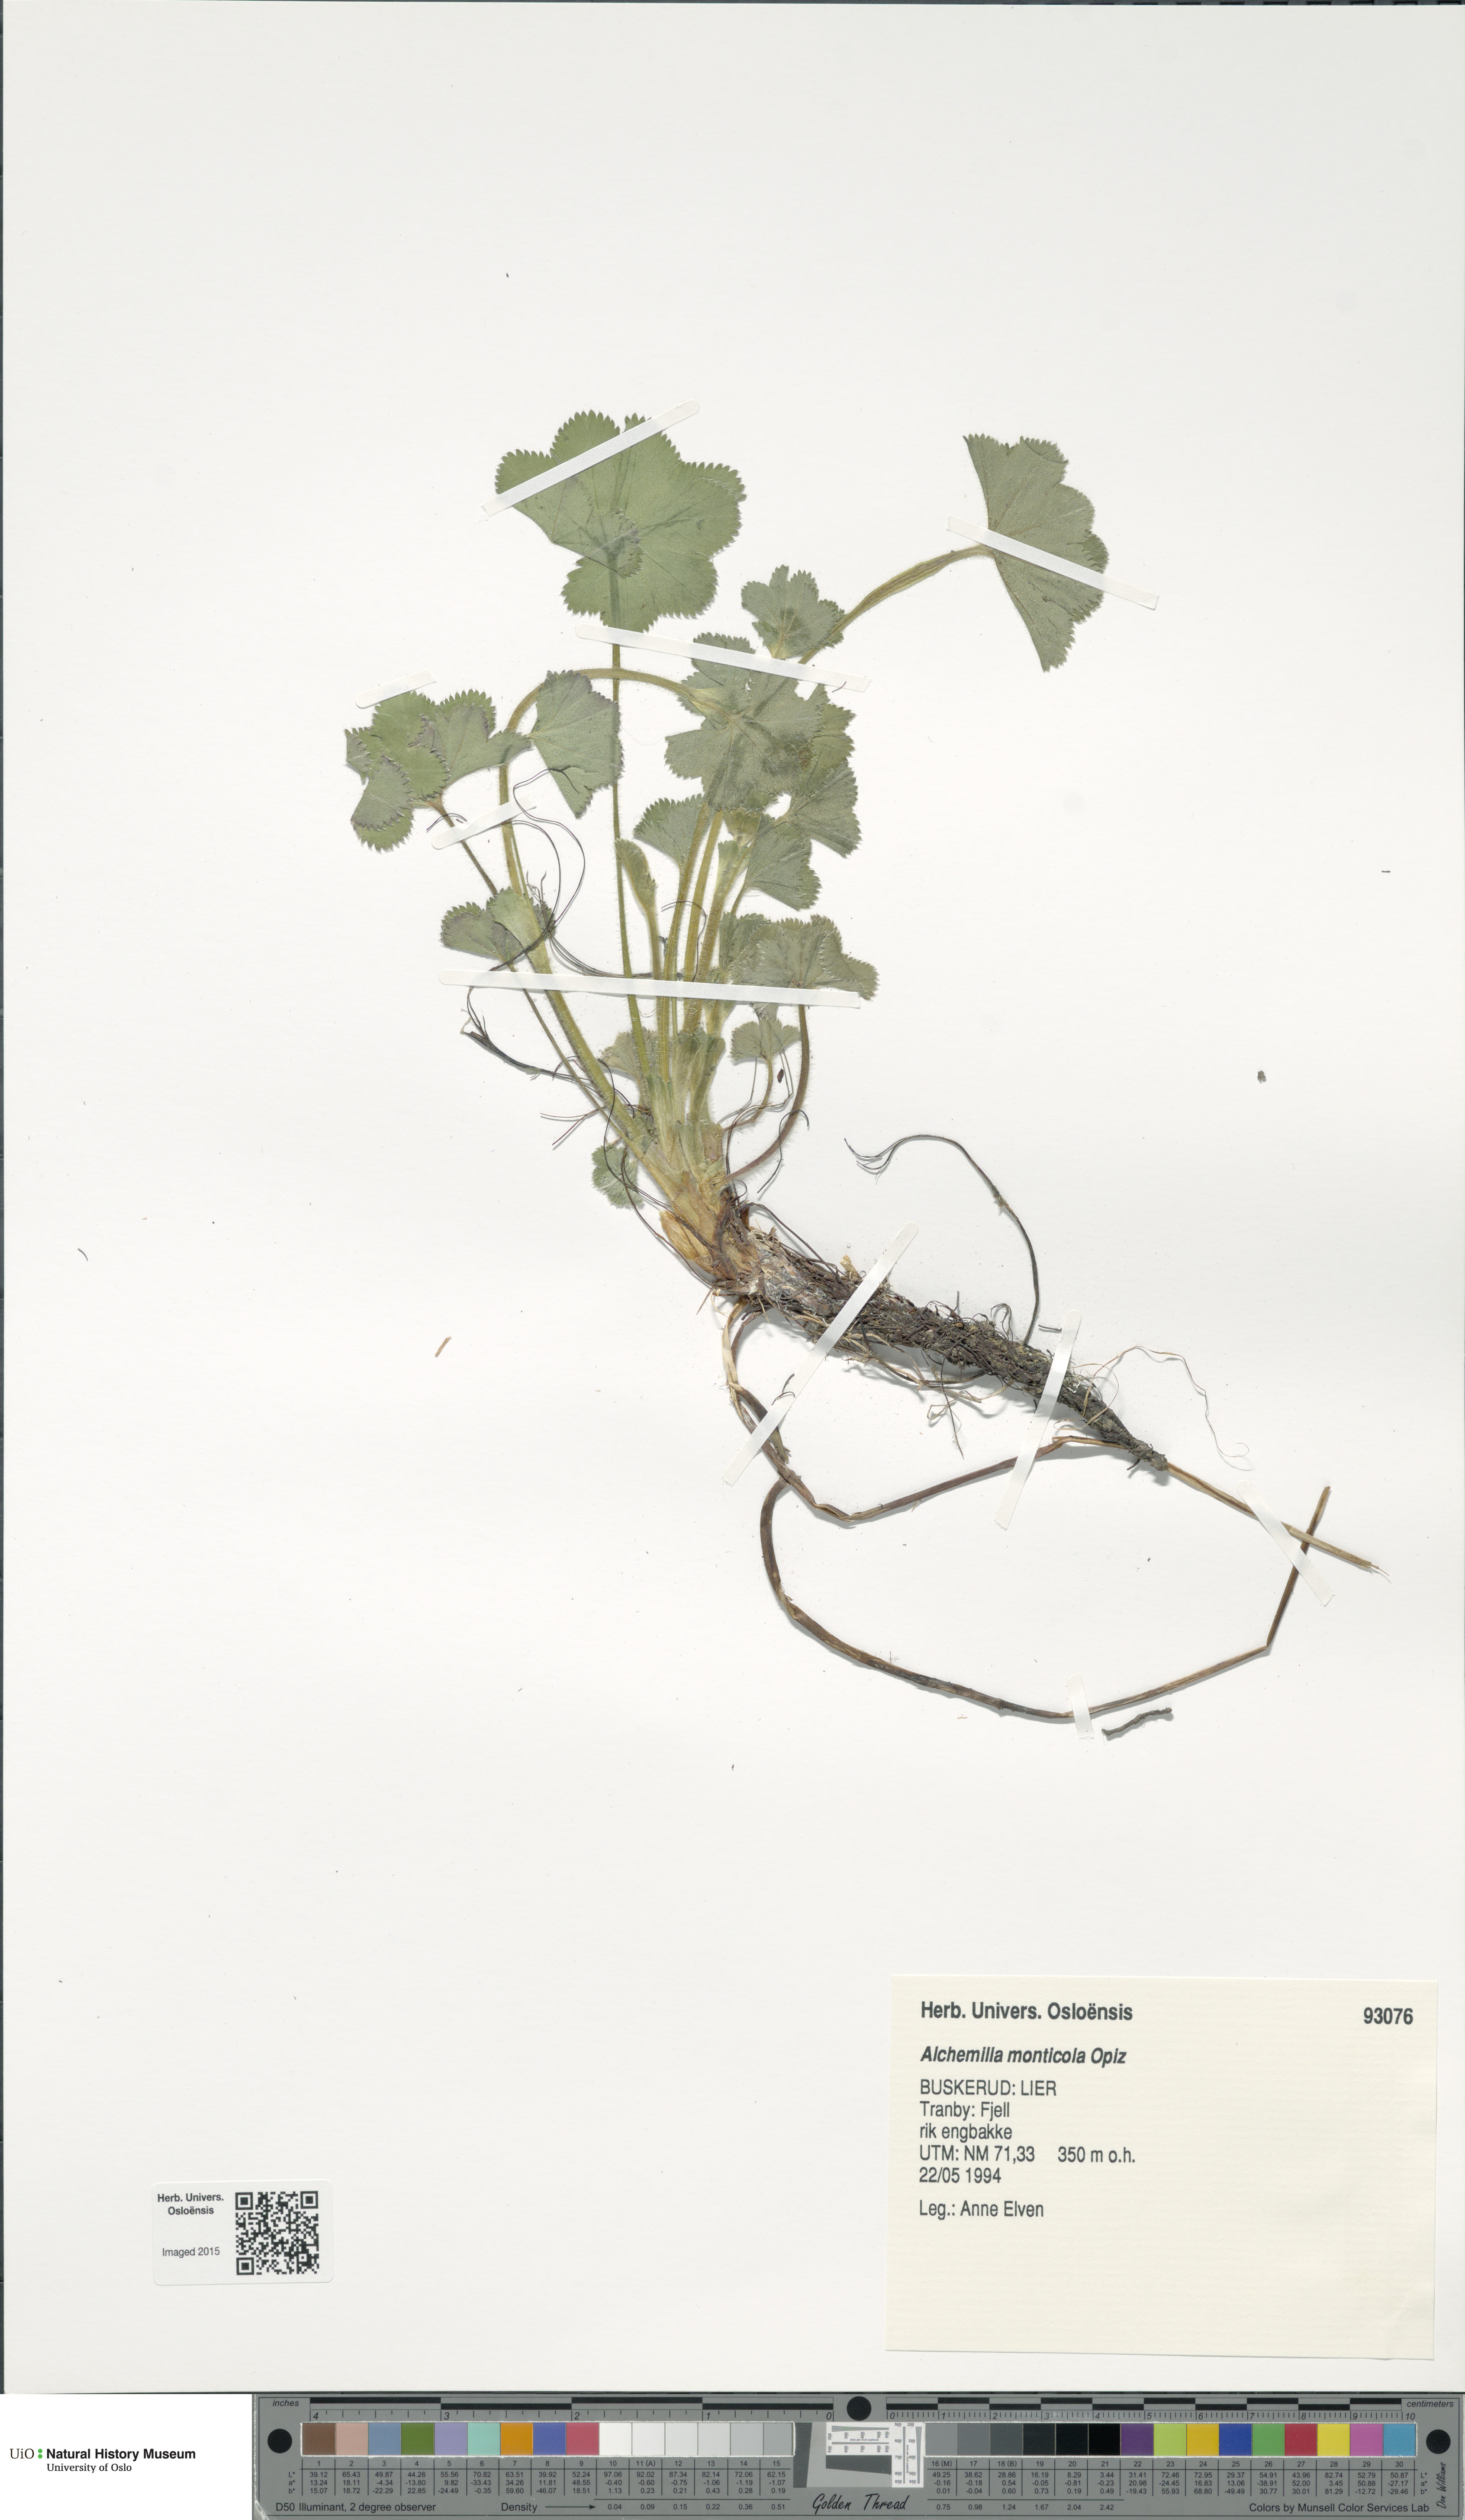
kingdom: Plantae
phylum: Tracheophyta
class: Magnoliopsida
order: Rosales
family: Rosaceae
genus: Alchemilla
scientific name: Alchemilla monticola
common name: Hairy lady's mantle
